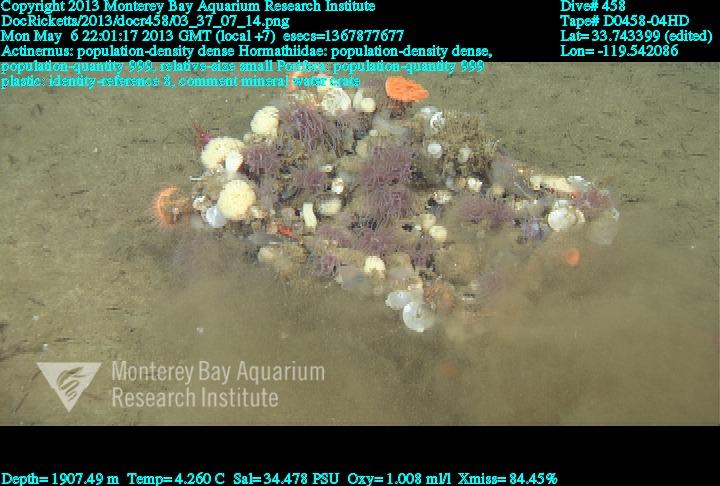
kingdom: Animalia
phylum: Porifera
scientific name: Porifera
